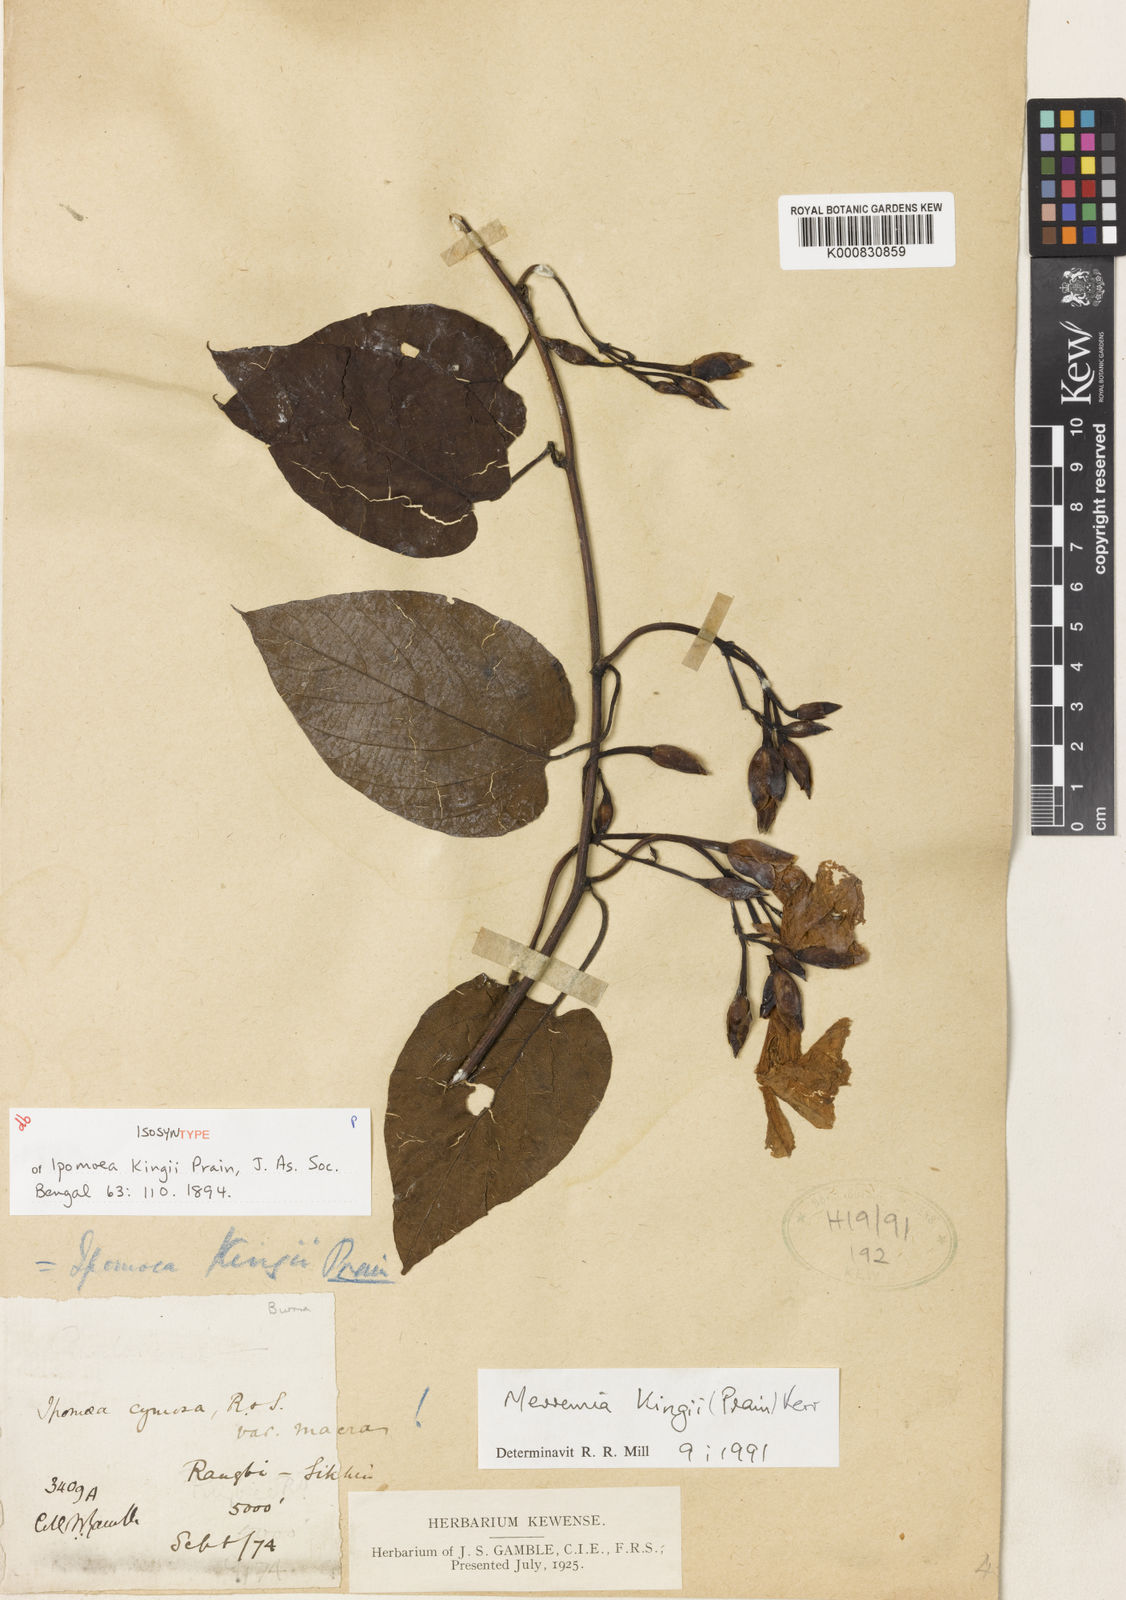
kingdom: Plantae
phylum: Tracheophyta
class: Magnoliopsida
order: Solanales
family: Convolvulaceae
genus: Camonea
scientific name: Camonea kingii
